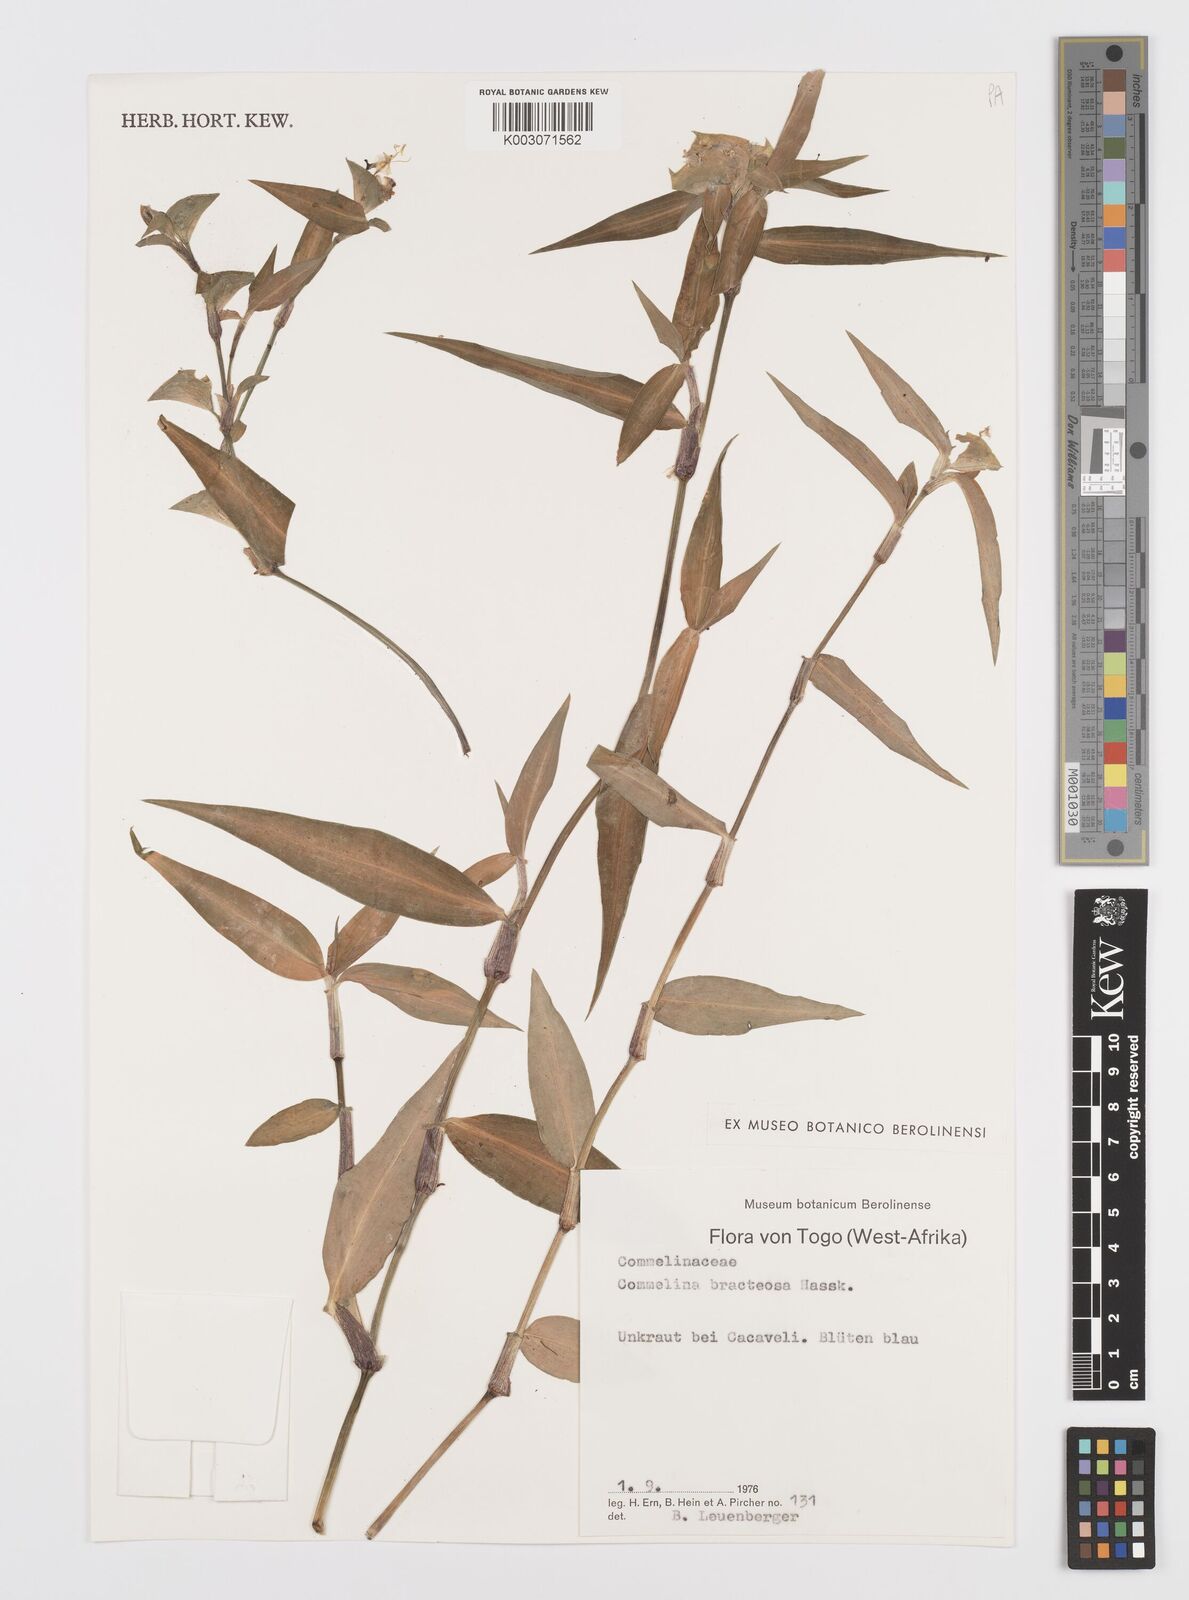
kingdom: Plantae
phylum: Tracheophyta
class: Liliopsida
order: Commelinales
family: Commelinaceae
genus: Commelina
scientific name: Commelina bracteosa
